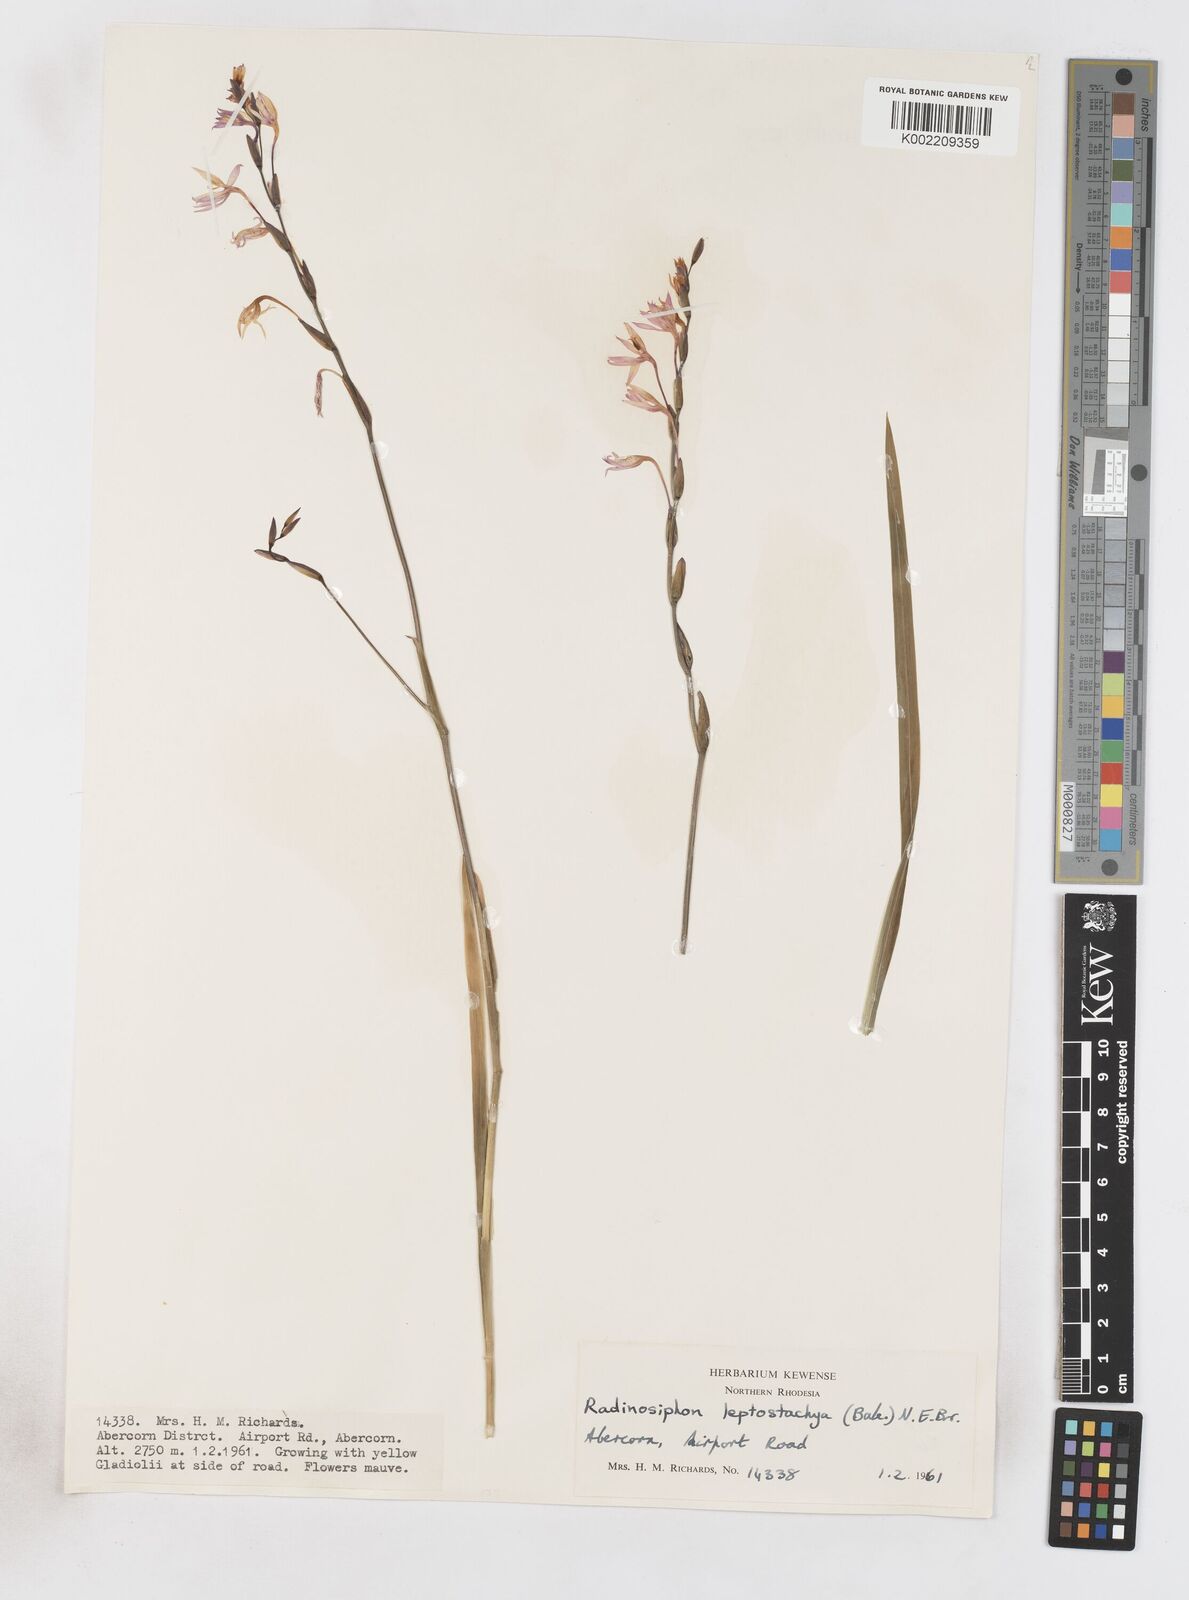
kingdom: Plantae
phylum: Tracheophyta
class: Liliopsida
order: Asparagales
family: Iridaceae
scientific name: Iridaceae
